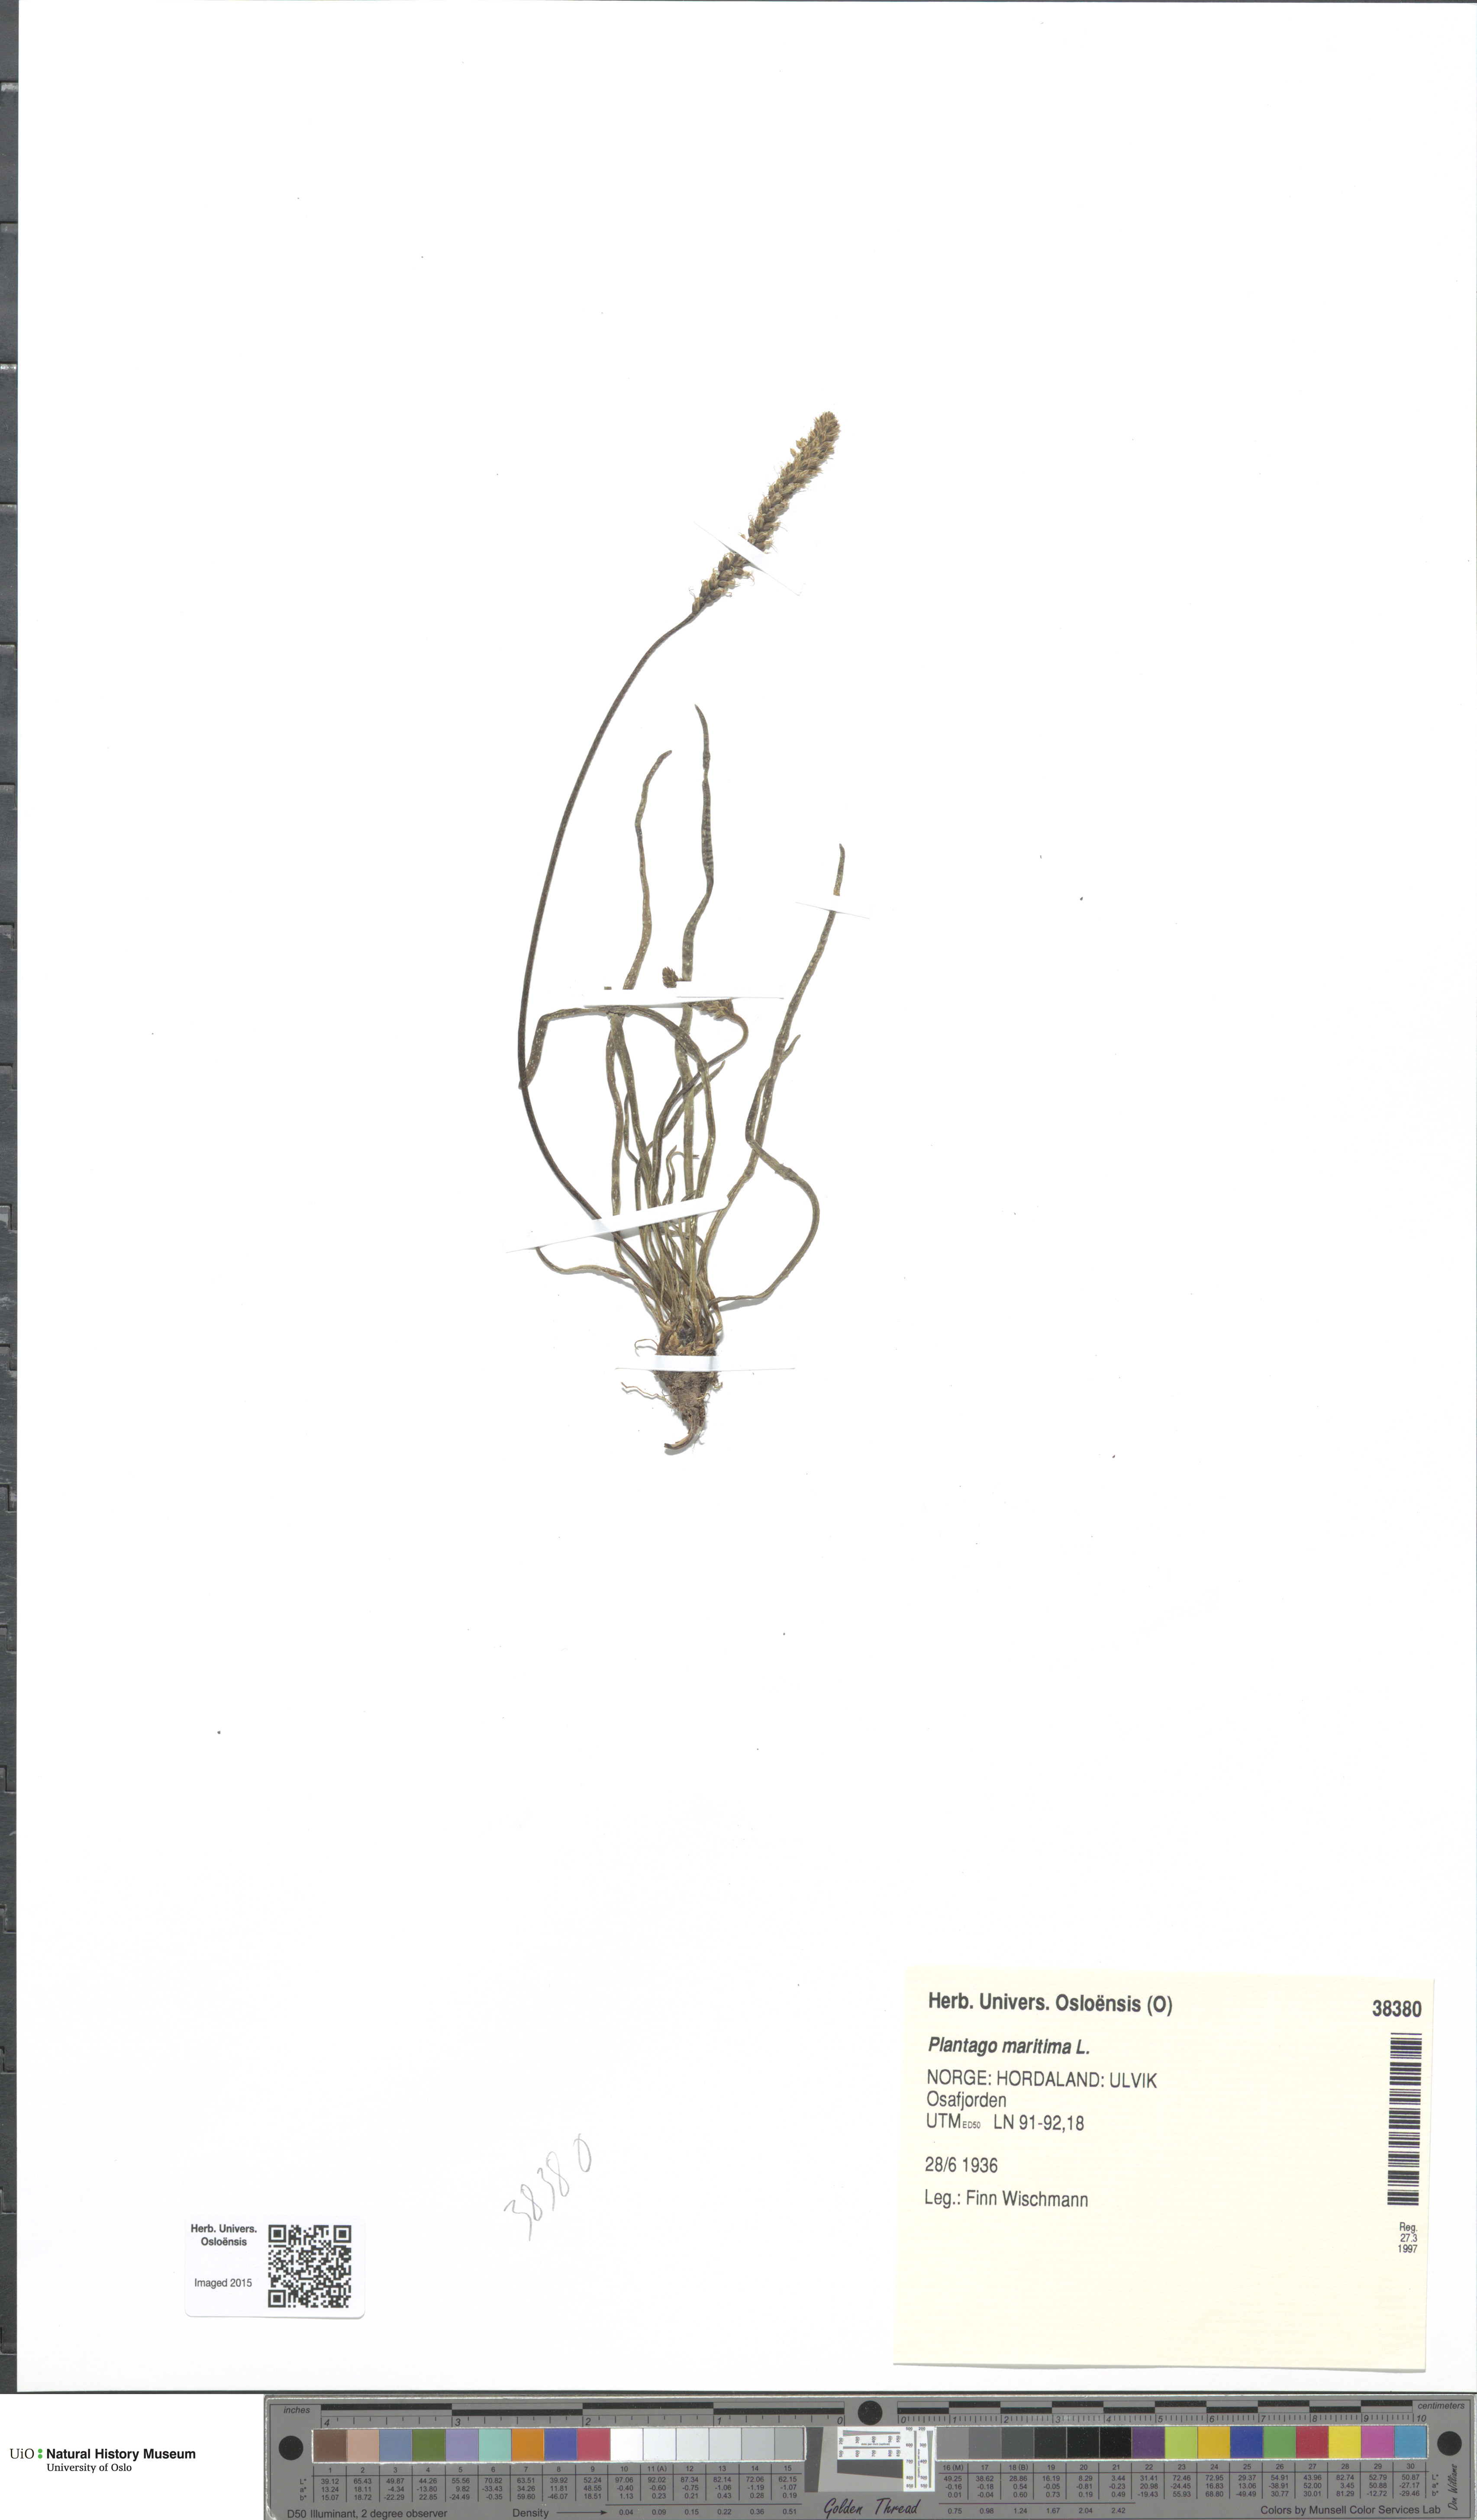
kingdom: Plantae
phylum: Tracheophyta
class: Magnoliopsida
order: Lamiales
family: Plantaginaceae
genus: Plantago
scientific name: Plantago maritima
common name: Sea plantain
